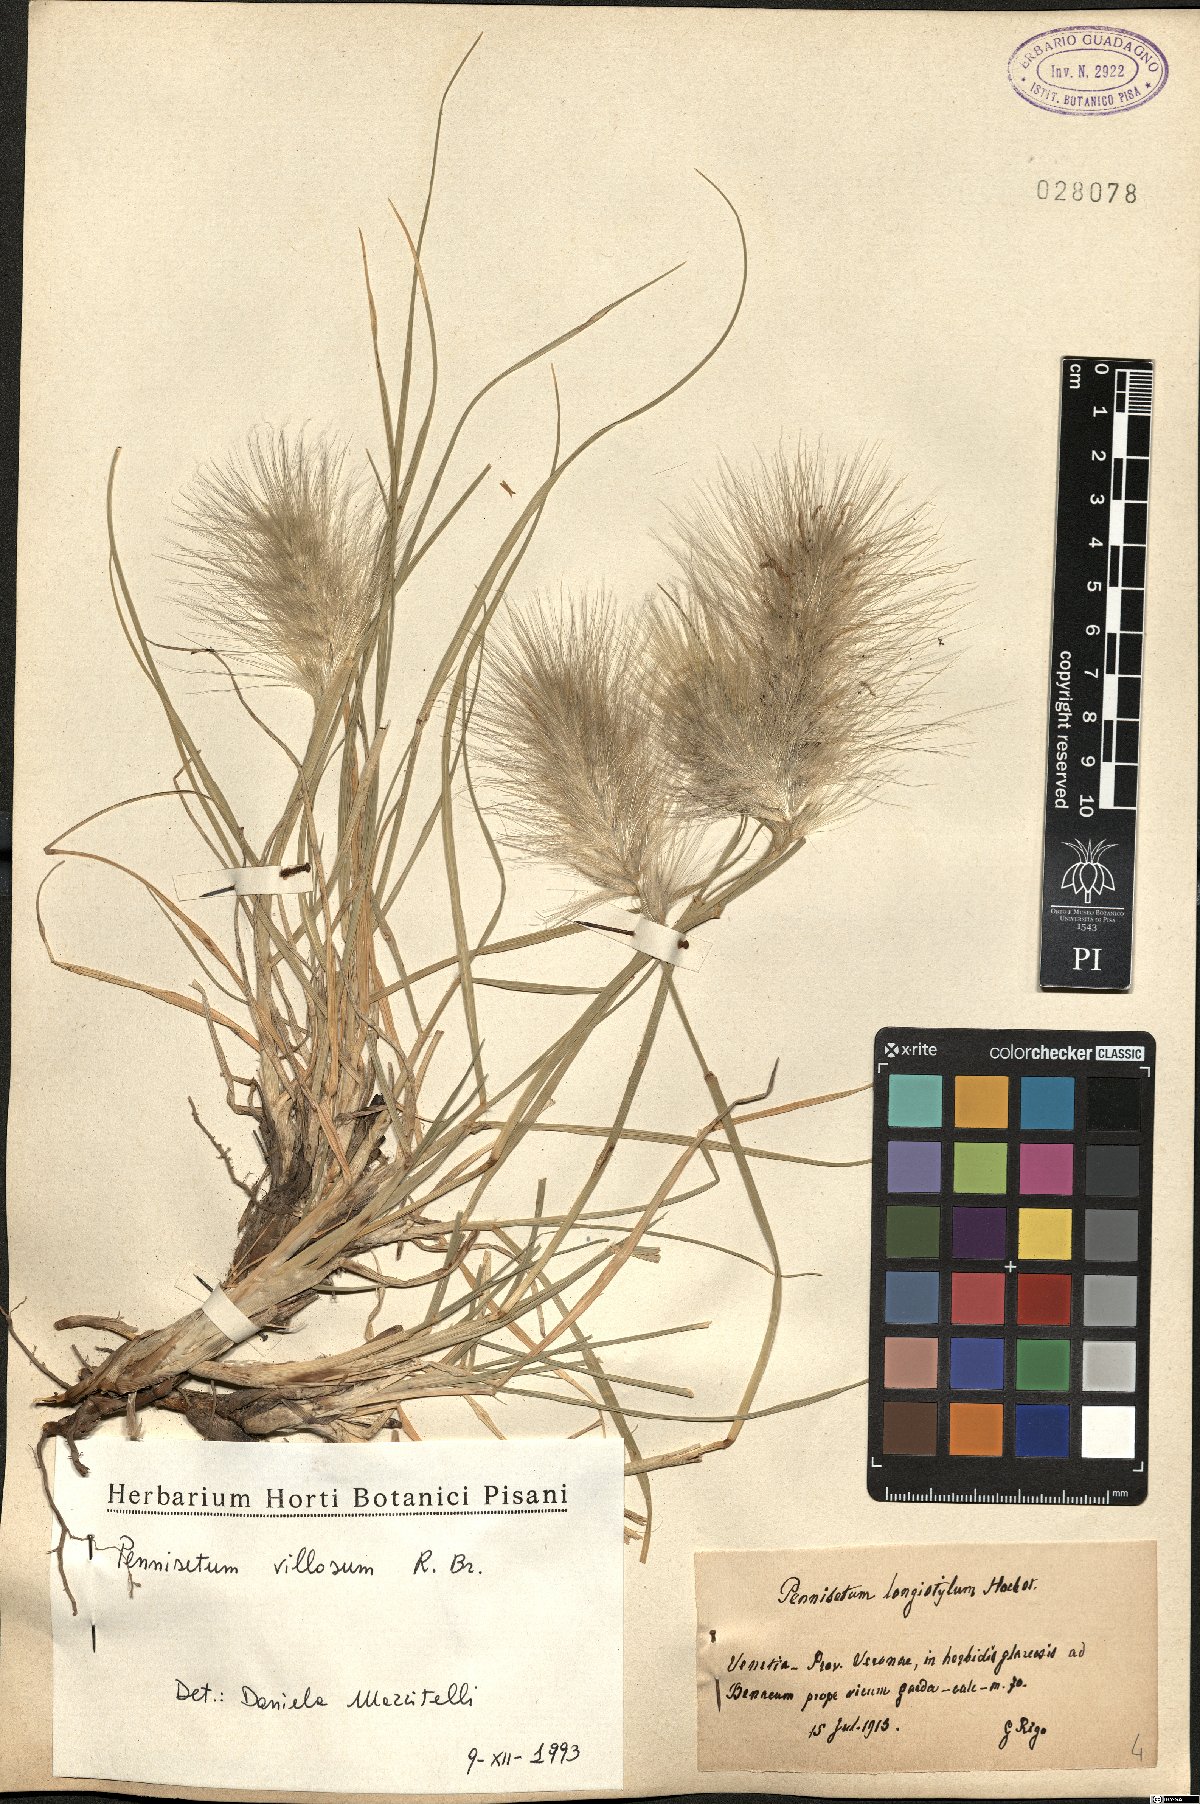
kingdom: Plantae
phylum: Tracheophyta
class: Liliopsida
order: Poales
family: Poaceae
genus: Cenchrus
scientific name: Cenchrus longisetus
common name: Feathertop
